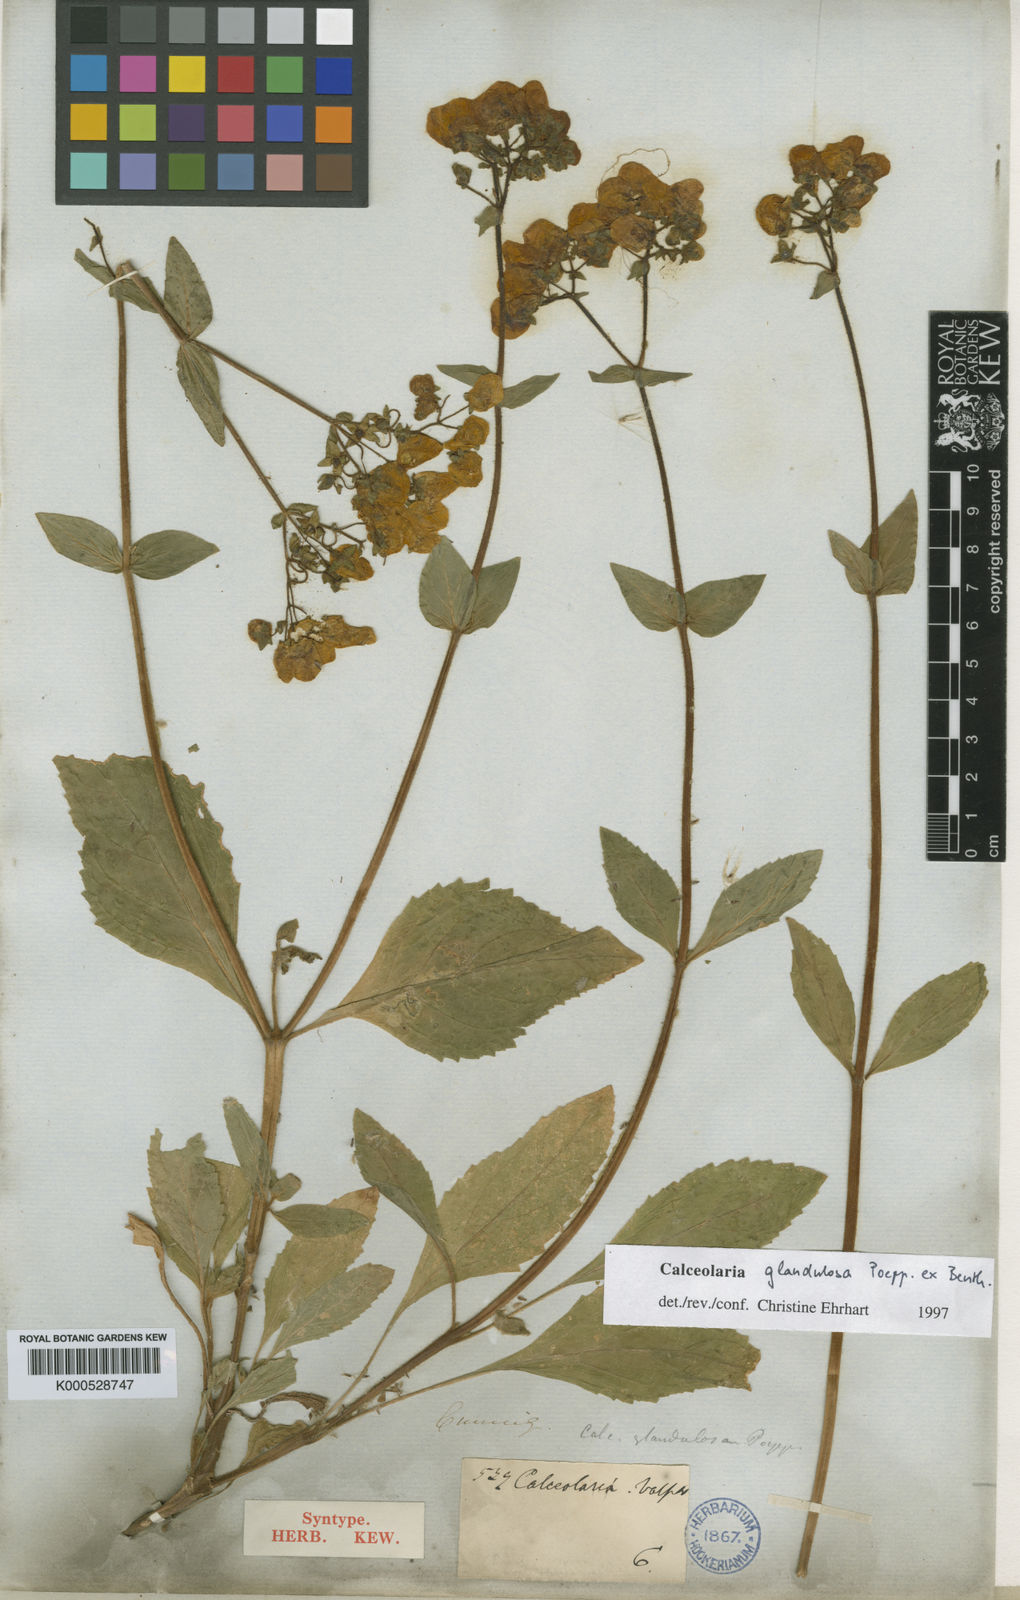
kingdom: Plantae
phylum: Tracheophyta
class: Magnoliopsida
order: Lamiales
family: Calceolariaceae
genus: Calceolaria
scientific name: Calceolaria glandulosa
